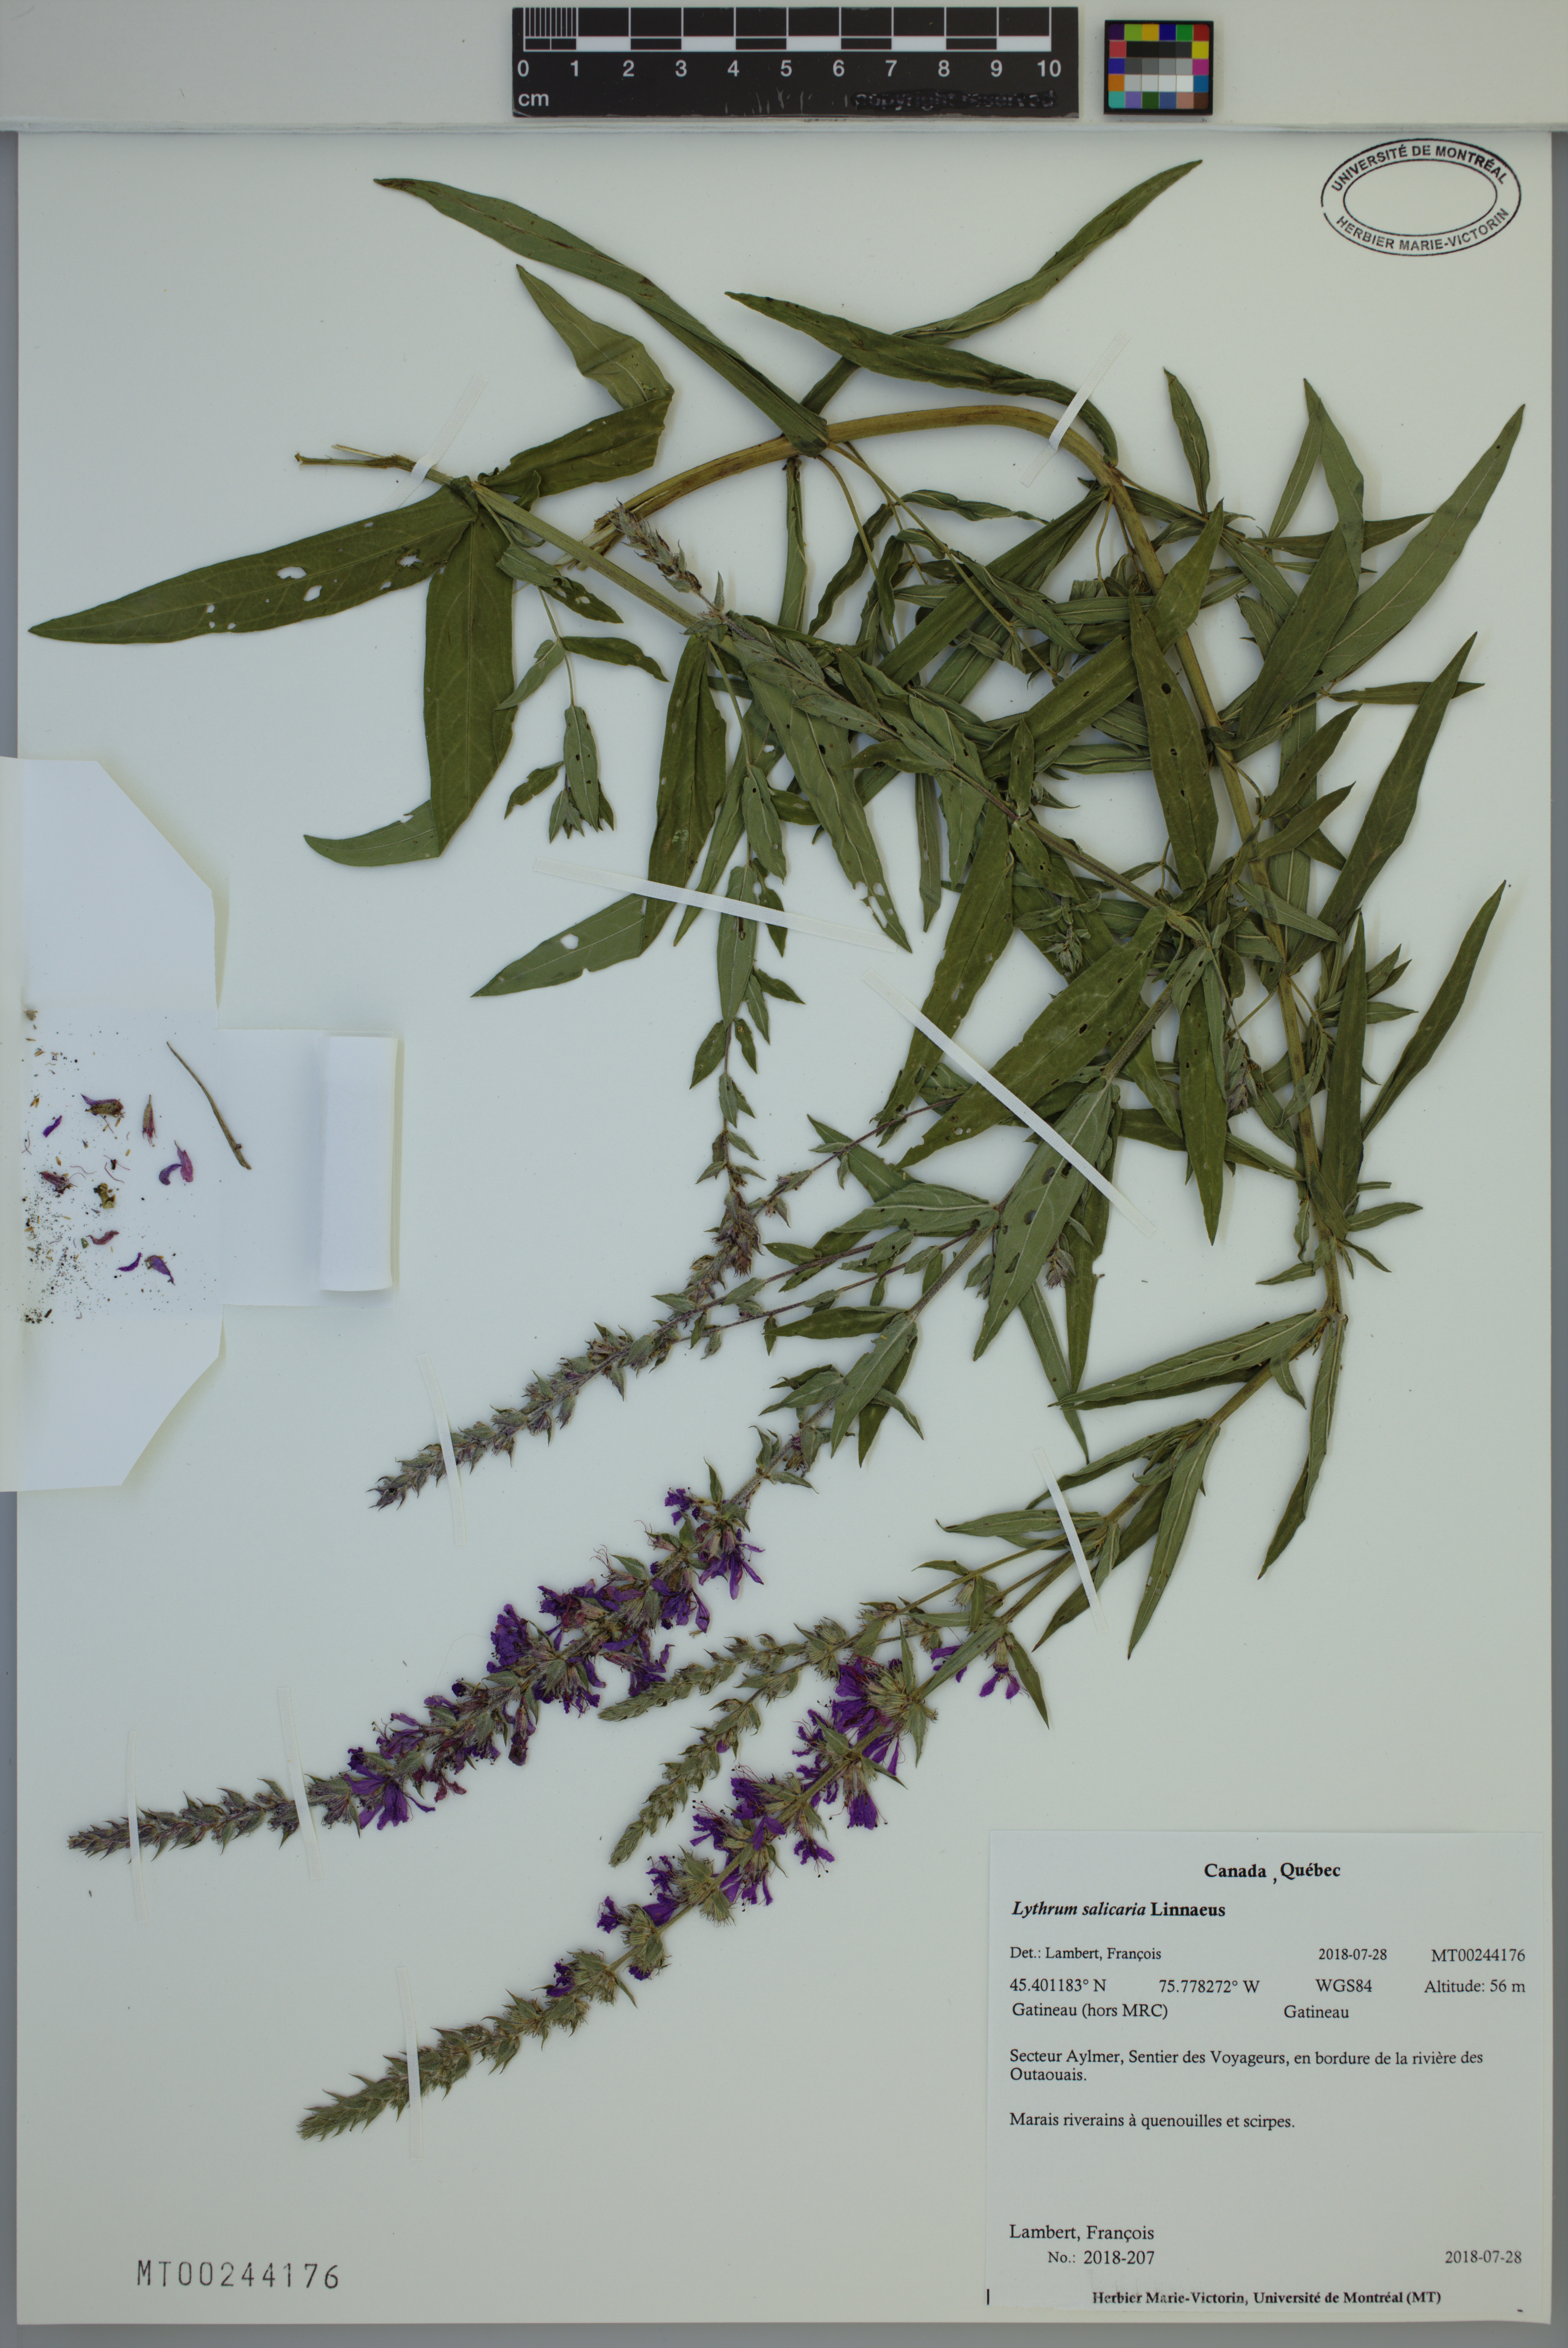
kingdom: Plantae
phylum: Tracheophyta
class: Magnoliopsida
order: Myrtales
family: Lythraceae
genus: Lythrum
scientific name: Lythrum salicaria
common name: Purple loosestrife
